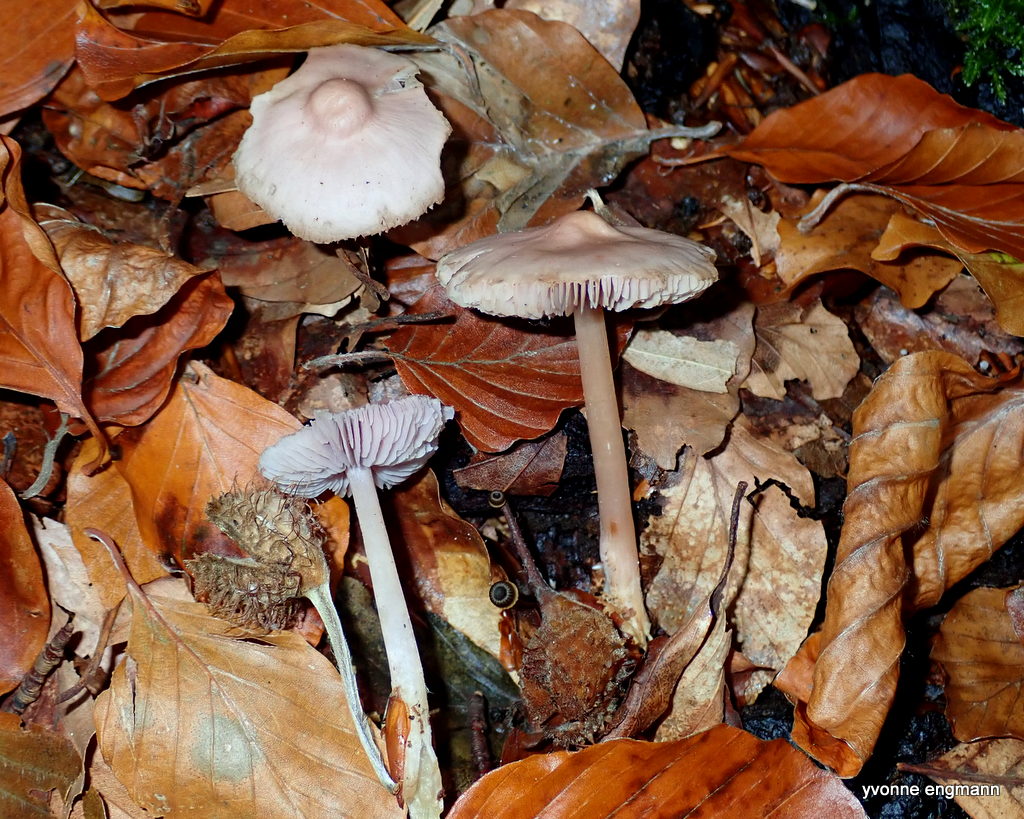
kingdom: Fungi
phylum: Basidiomycota
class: Agaricomycetes
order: Agaricales
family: Mycenaceae
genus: Mycena
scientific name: Mycena rosea
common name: rosa huesvamp
